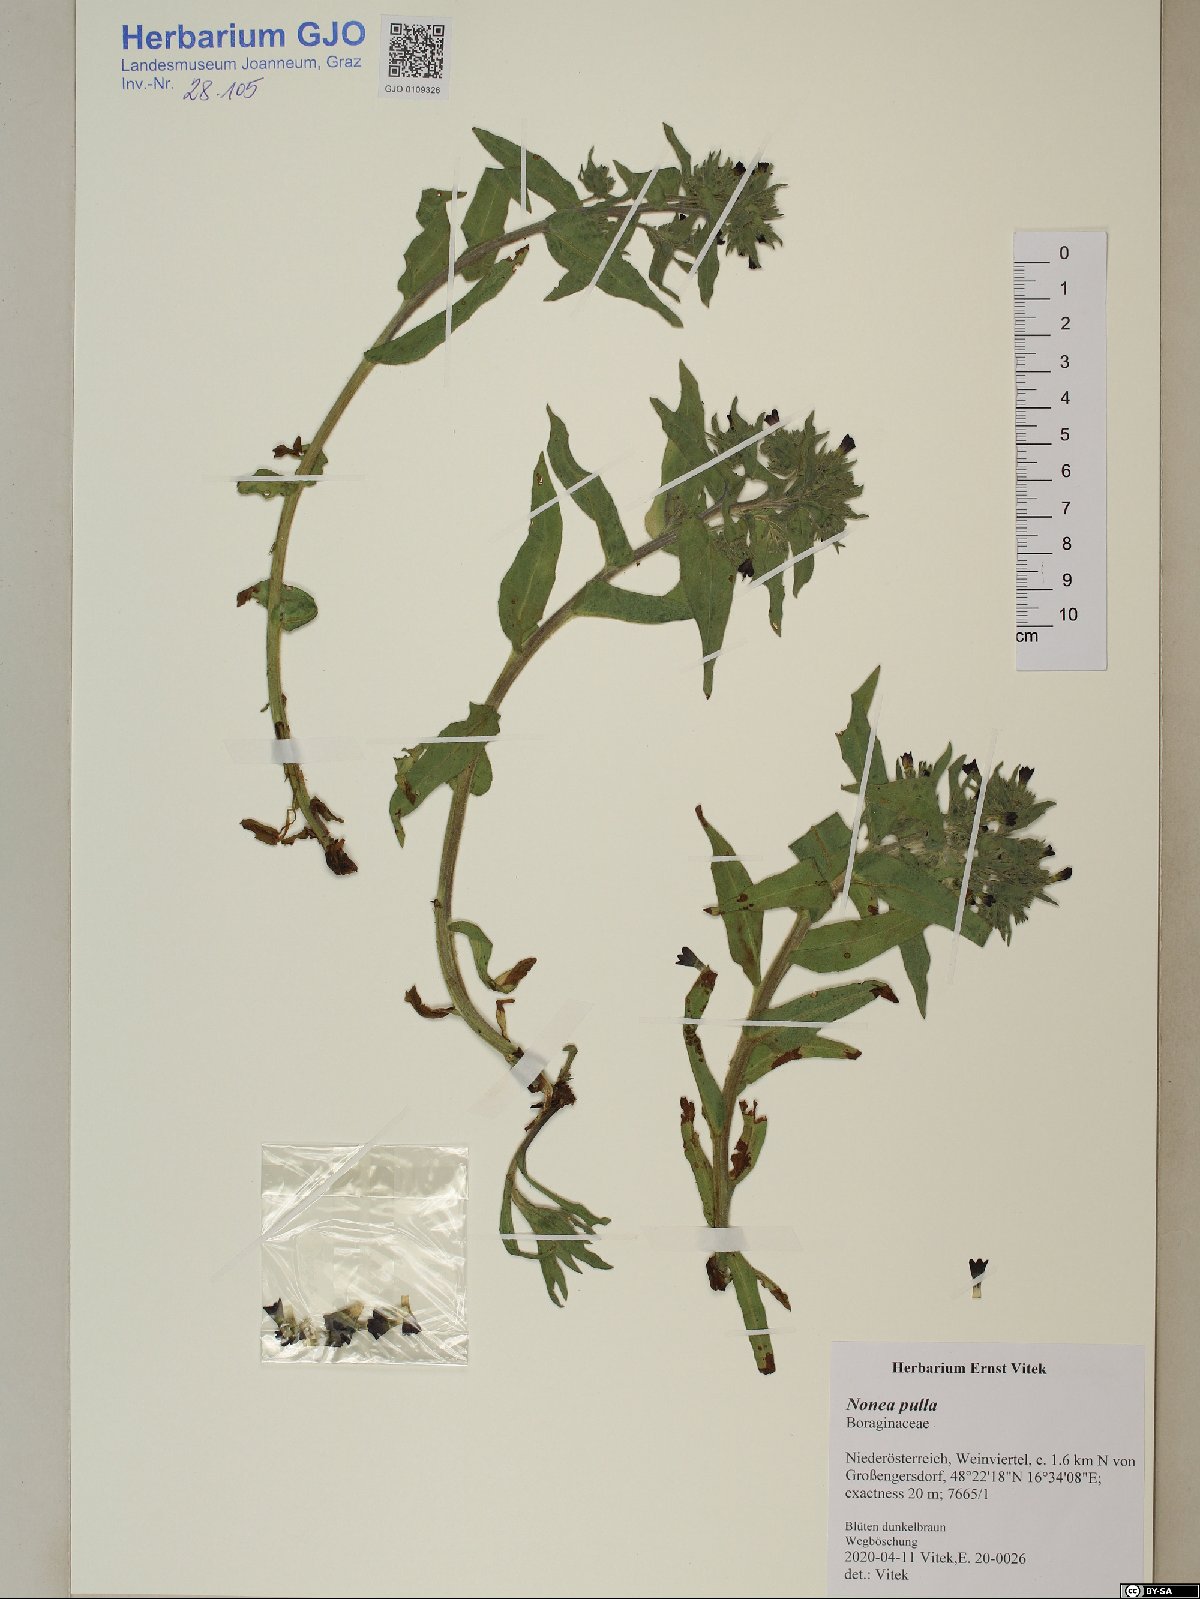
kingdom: Plantae
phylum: Tracheophyta
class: Magnoliopsida
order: Boraginales
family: Boraginaceae
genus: Nonea
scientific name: Nonea pulla
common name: Brown nonea
